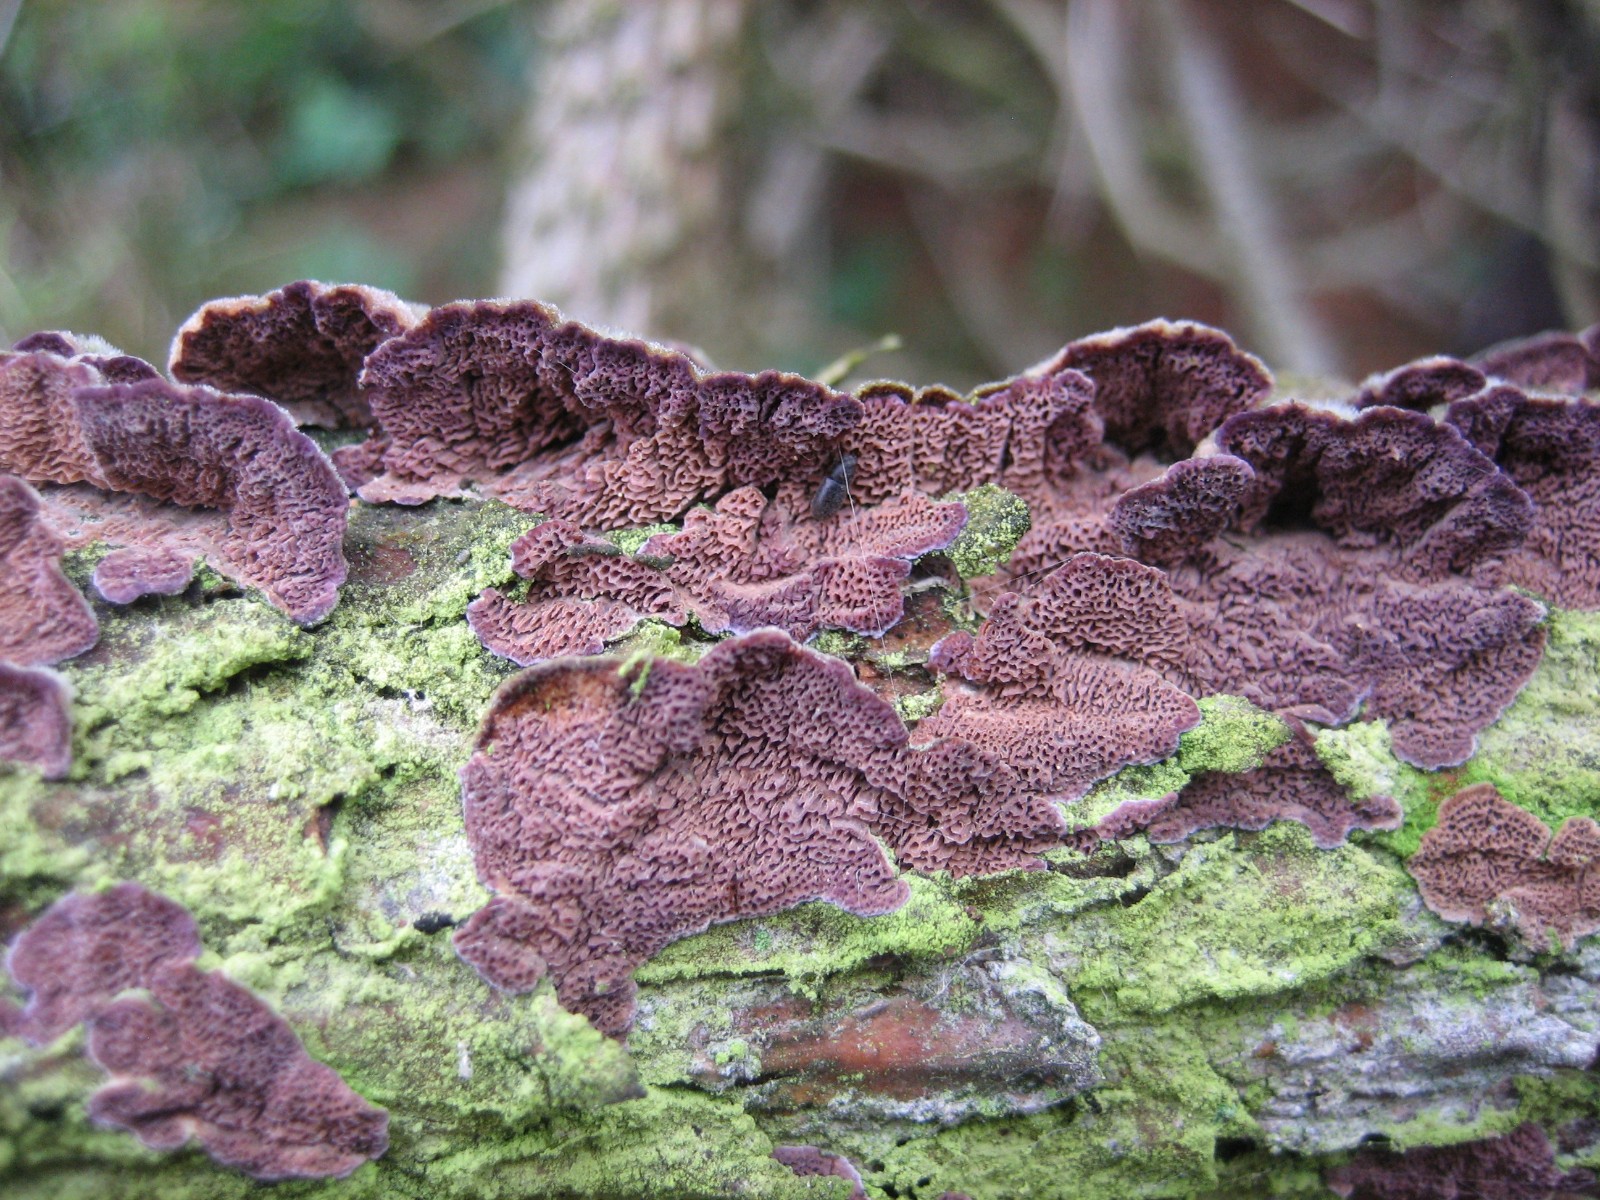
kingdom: Fungi
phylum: Basidiomycota
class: Agaricomycetes
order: Hymenochaetales
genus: Trichaptum
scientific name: Trichaptum abietinum
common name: almindelig violporesvamp
